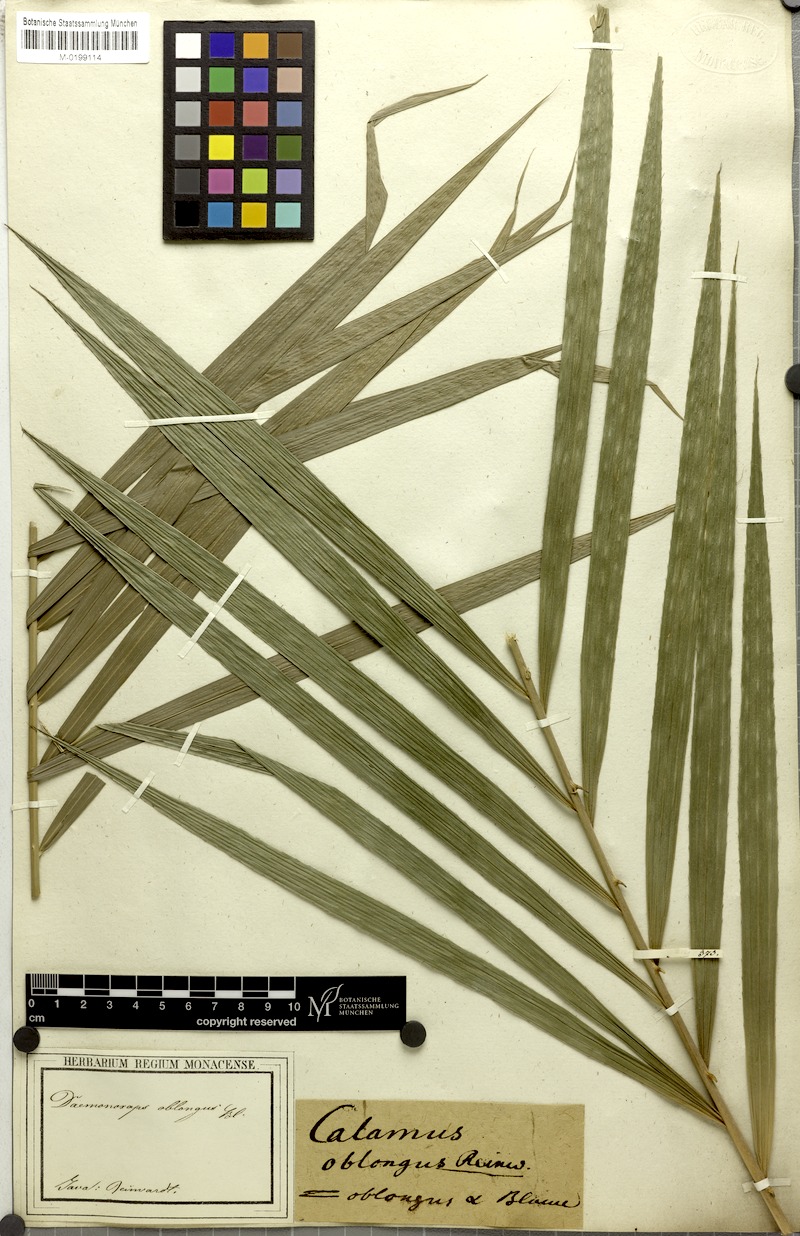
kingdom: Plantae
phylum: Tracheophyta
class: Liliopsida
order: Arecales
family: Arecaceae
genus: Calamus
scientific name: Calamus oblongus
